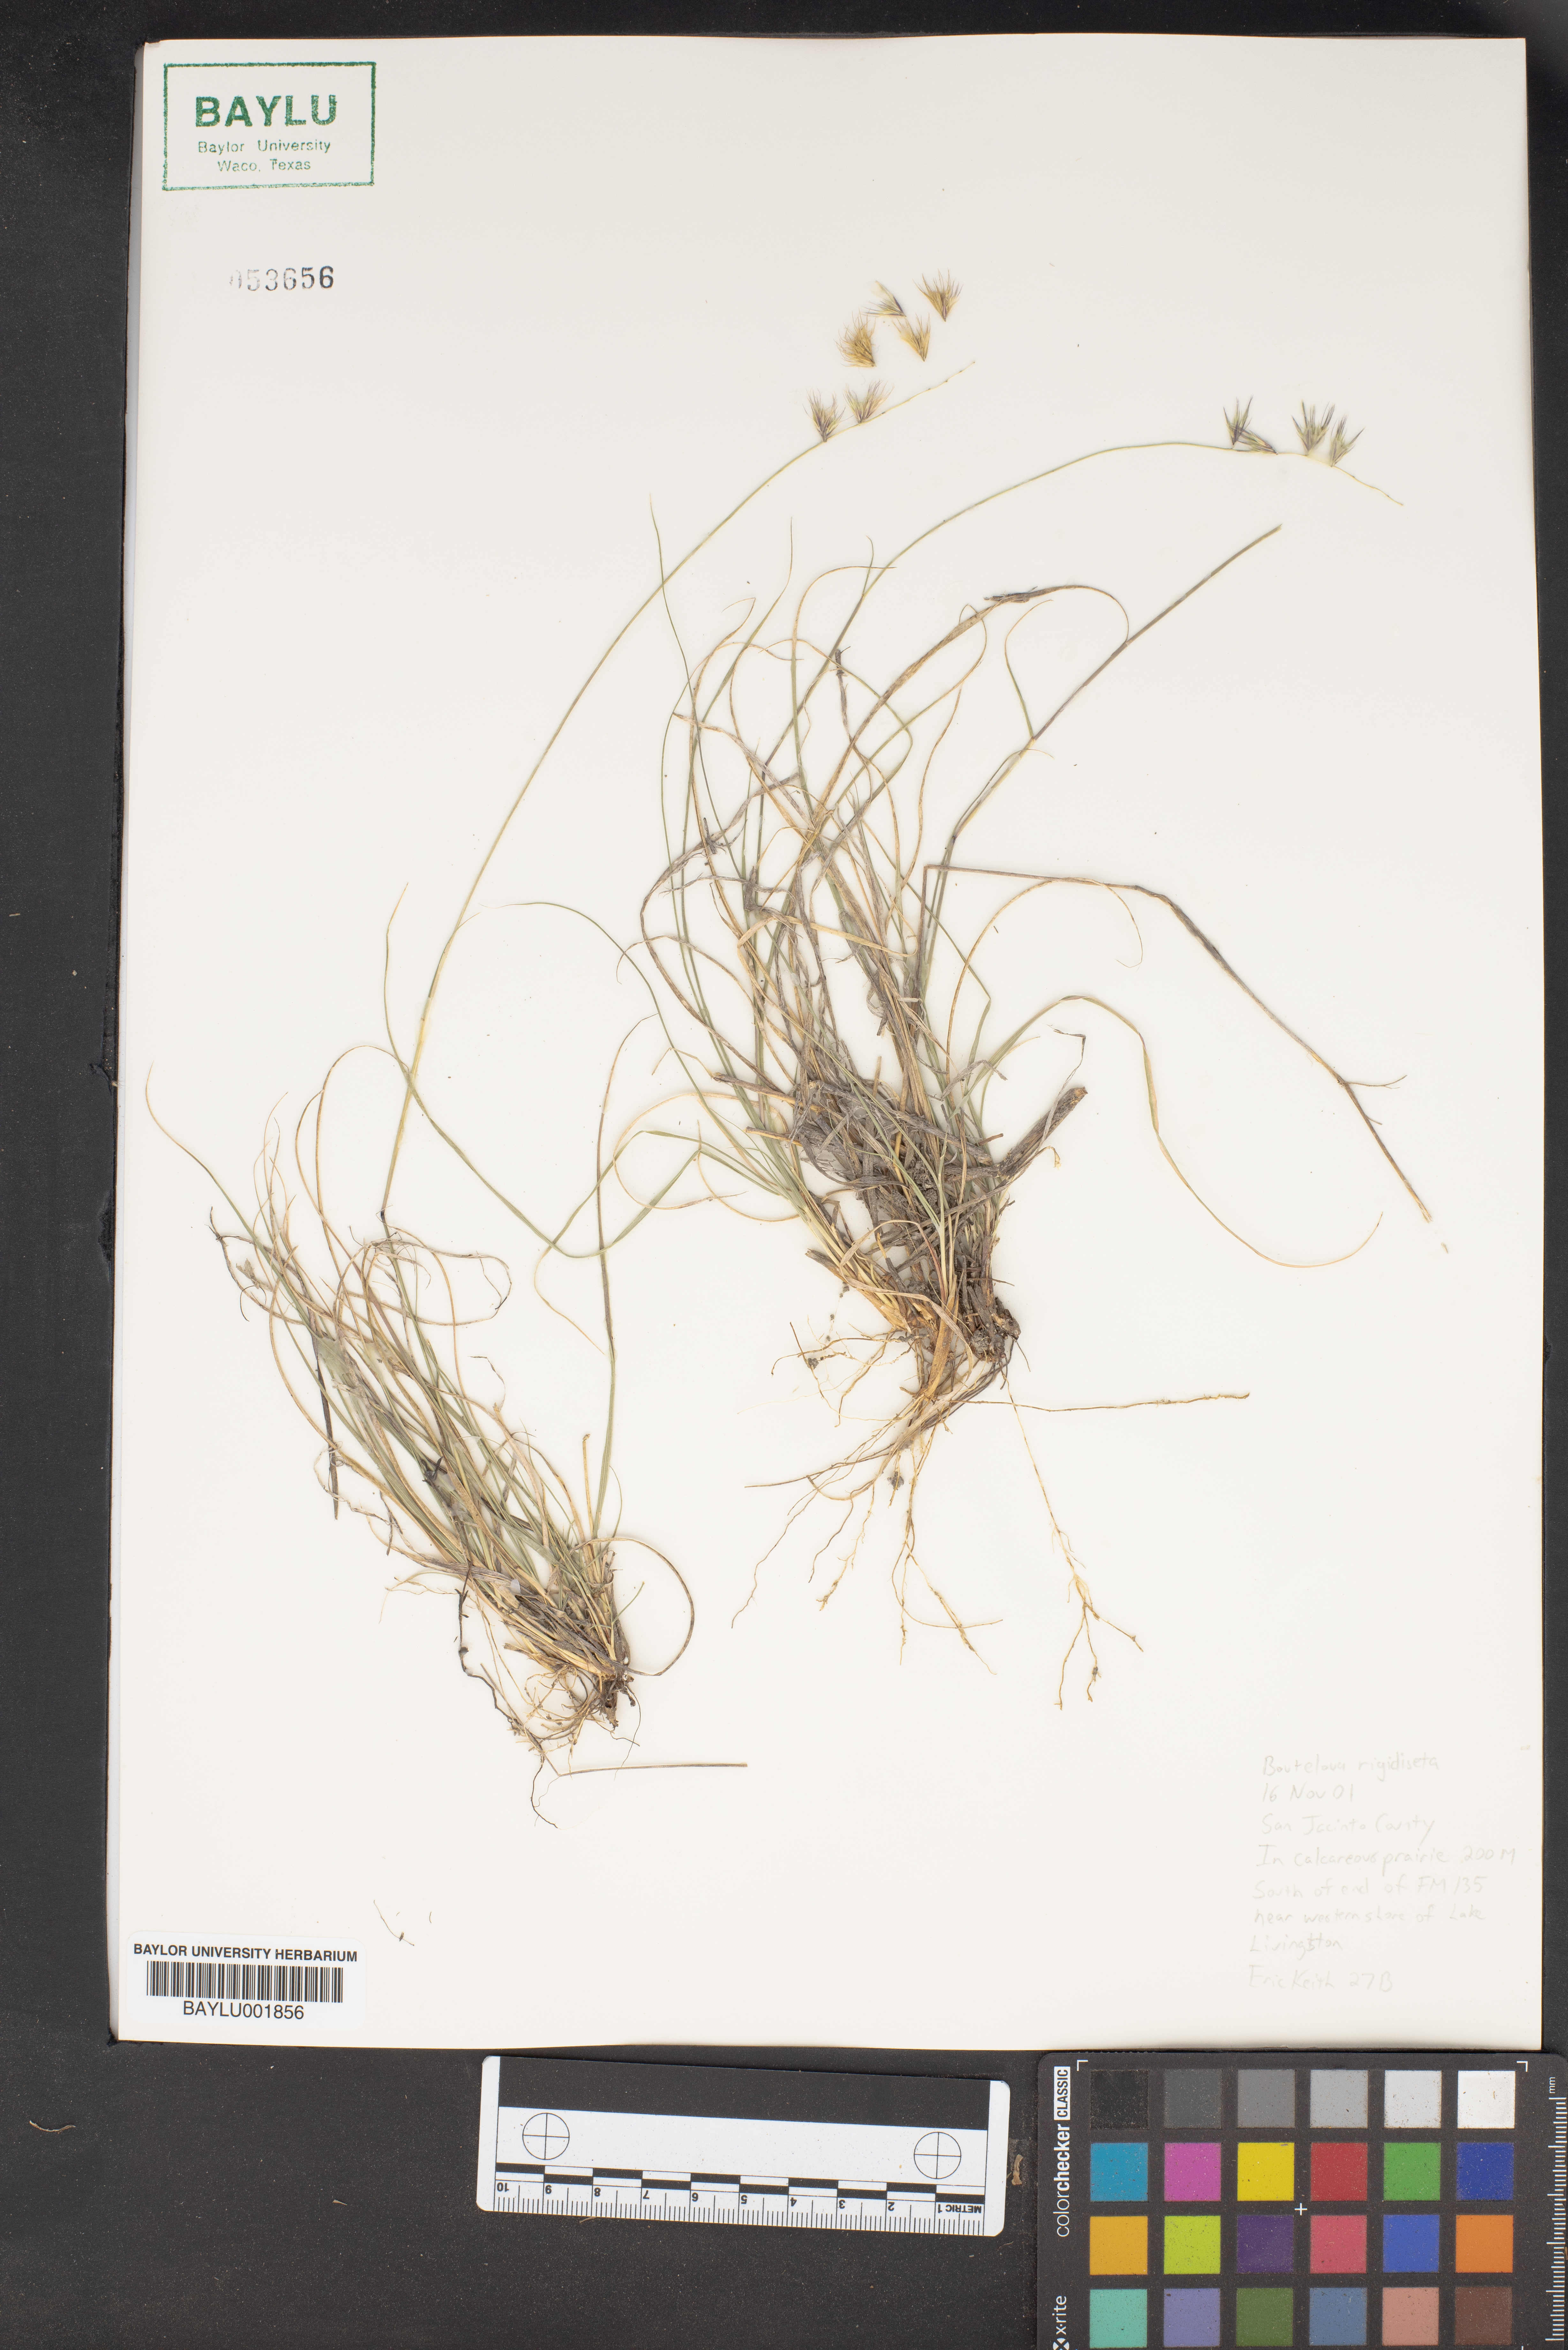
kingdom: Plantae
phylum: Tracheophyta
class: Liliopsida
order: Poales
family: Poaceae
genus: Bouteloua
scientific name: Bouteloua rigidiseta
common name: Texas grama
